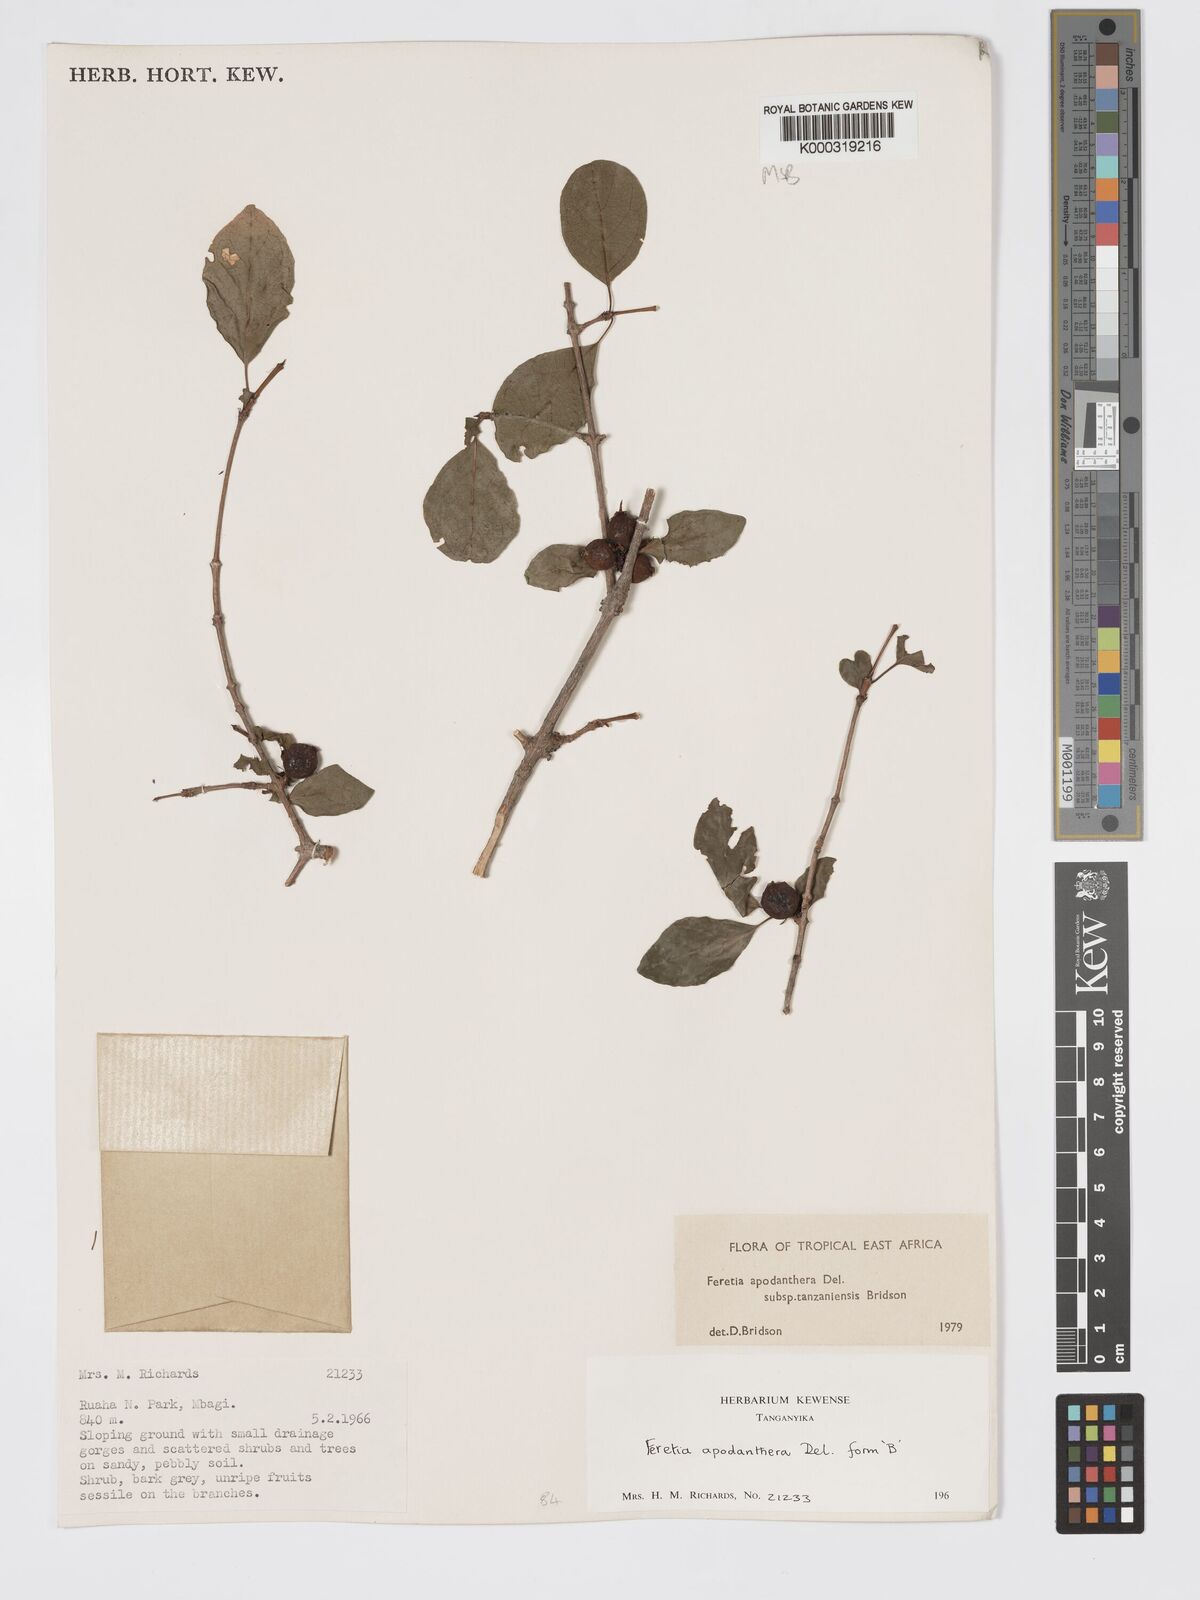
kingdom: Plantae
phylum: Tracheophyta
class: Magnoliopsida
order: Gentianales
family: Rubiaceae
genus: Feretia
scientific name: Feretia apodanthera
